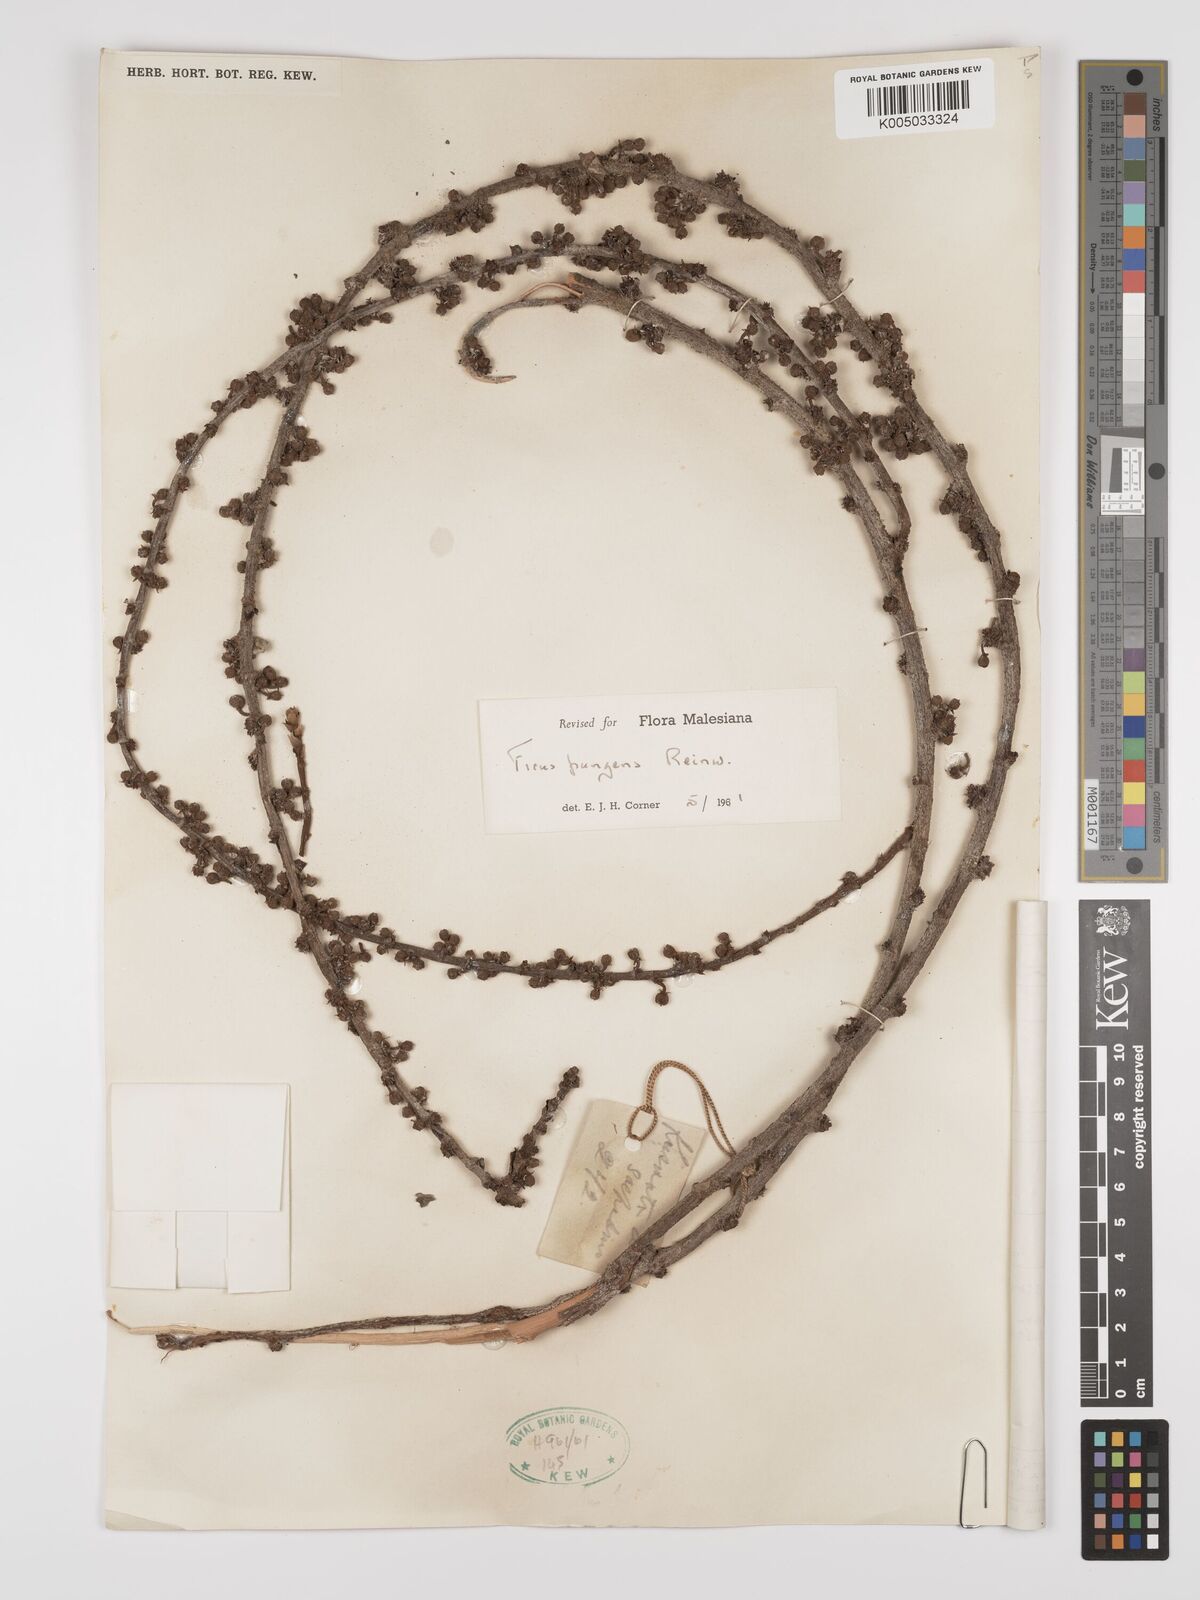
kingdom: Plantae
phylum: Tracheophyta
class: Magnoliopsida
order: Rosales
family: Moraceae
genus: Ficus
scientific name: Ficus pungens
